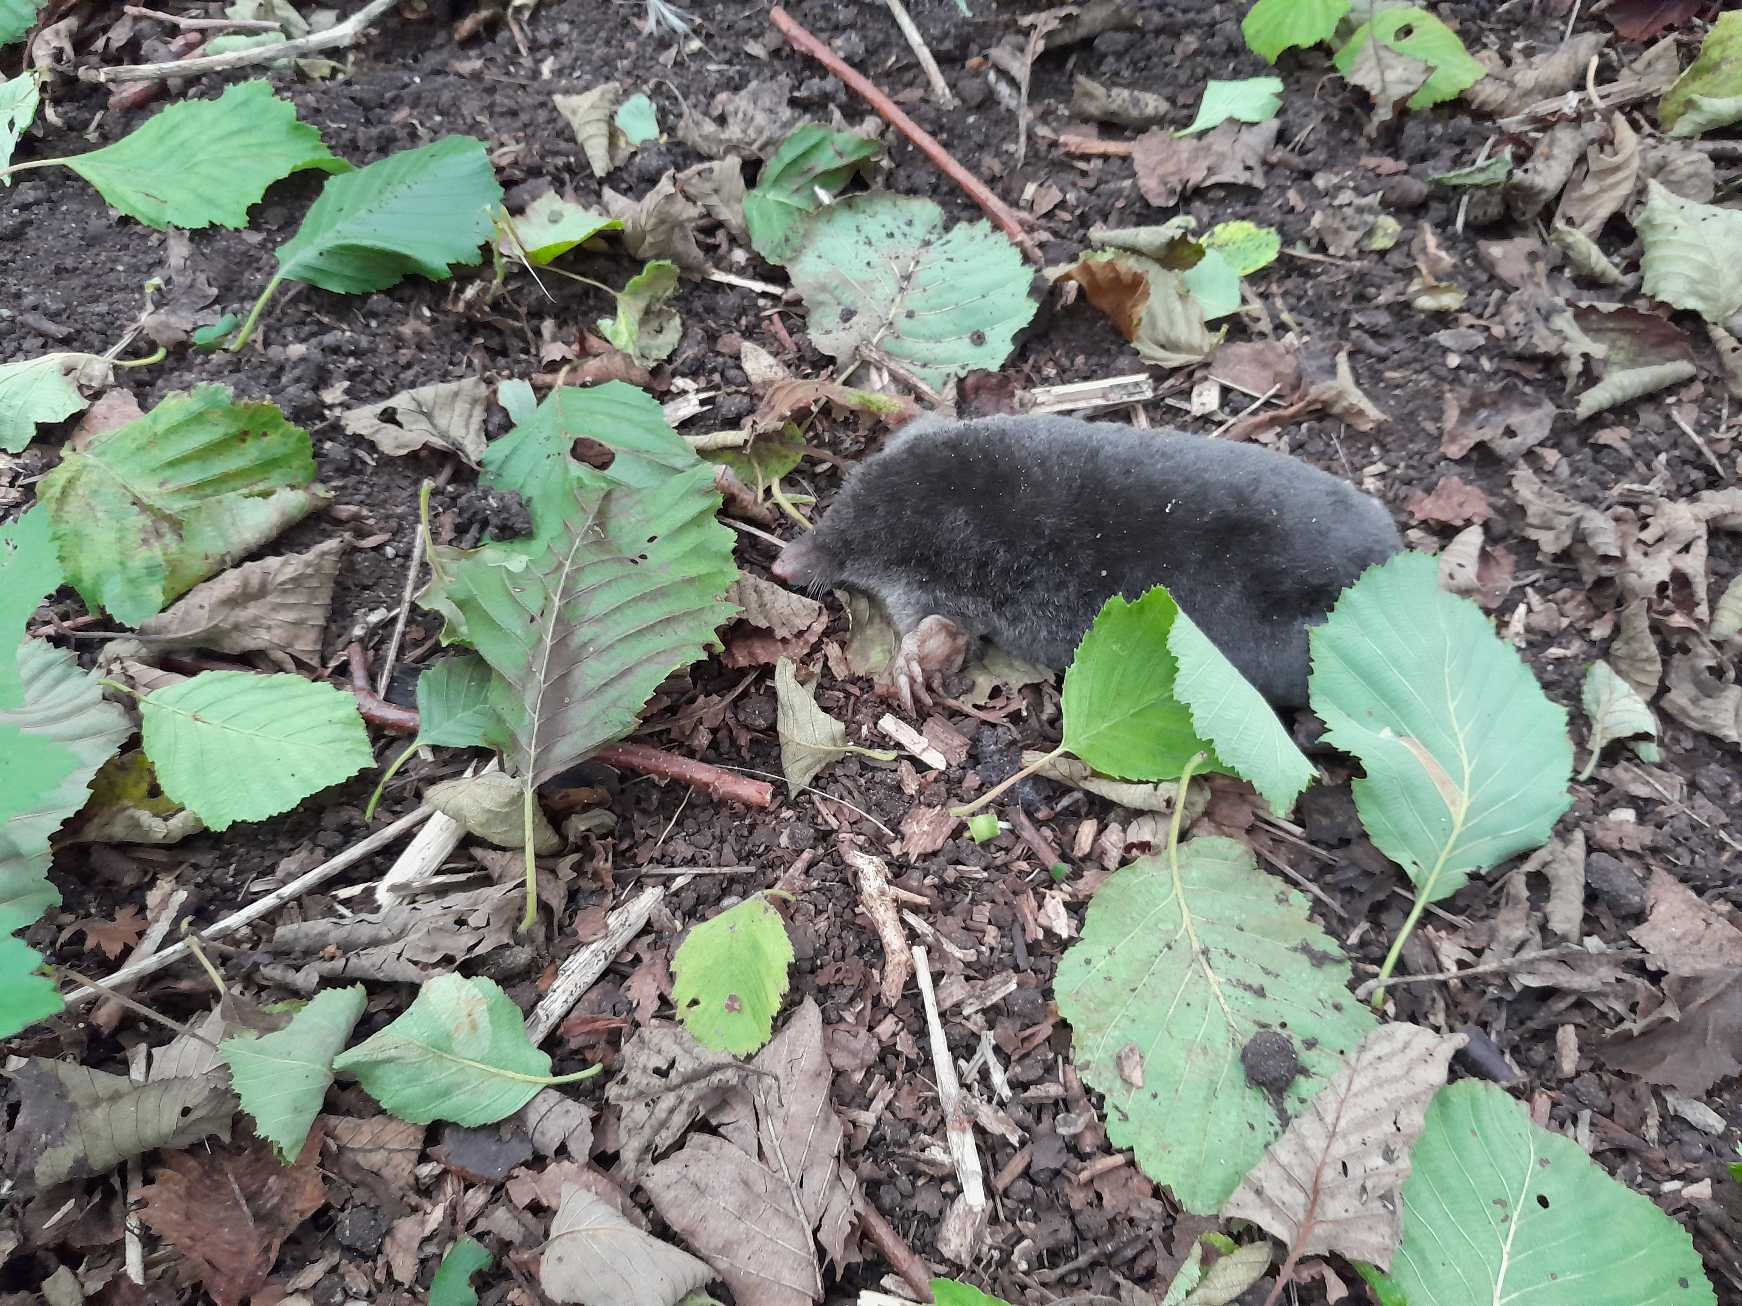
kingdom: Animalia
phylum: Chordata
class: Mammalia
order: Soricomorpha
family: Talpidae
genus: Talpa
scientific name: Talpa europaea
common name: Muldvarp
